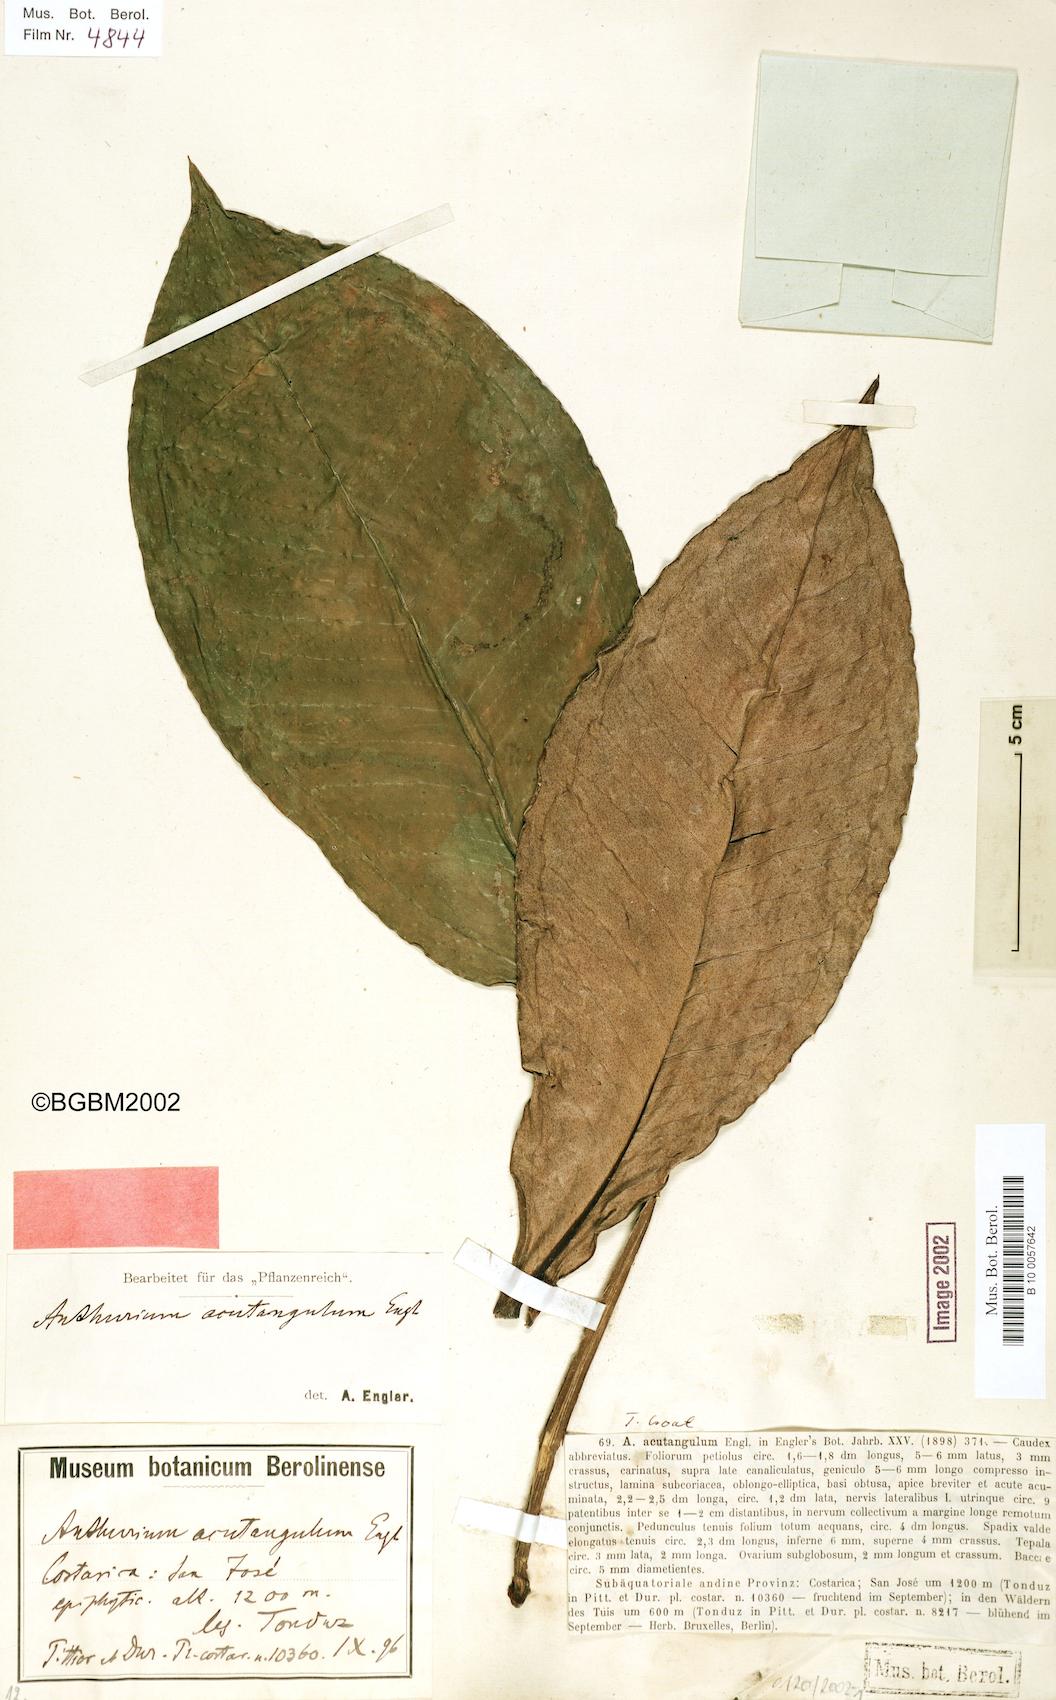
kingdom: Plantae
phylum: Tracheophyta
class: Liliopsida
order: Alismatales
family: Araceae
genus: Anthurium
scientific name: Anthurium acutangulum
